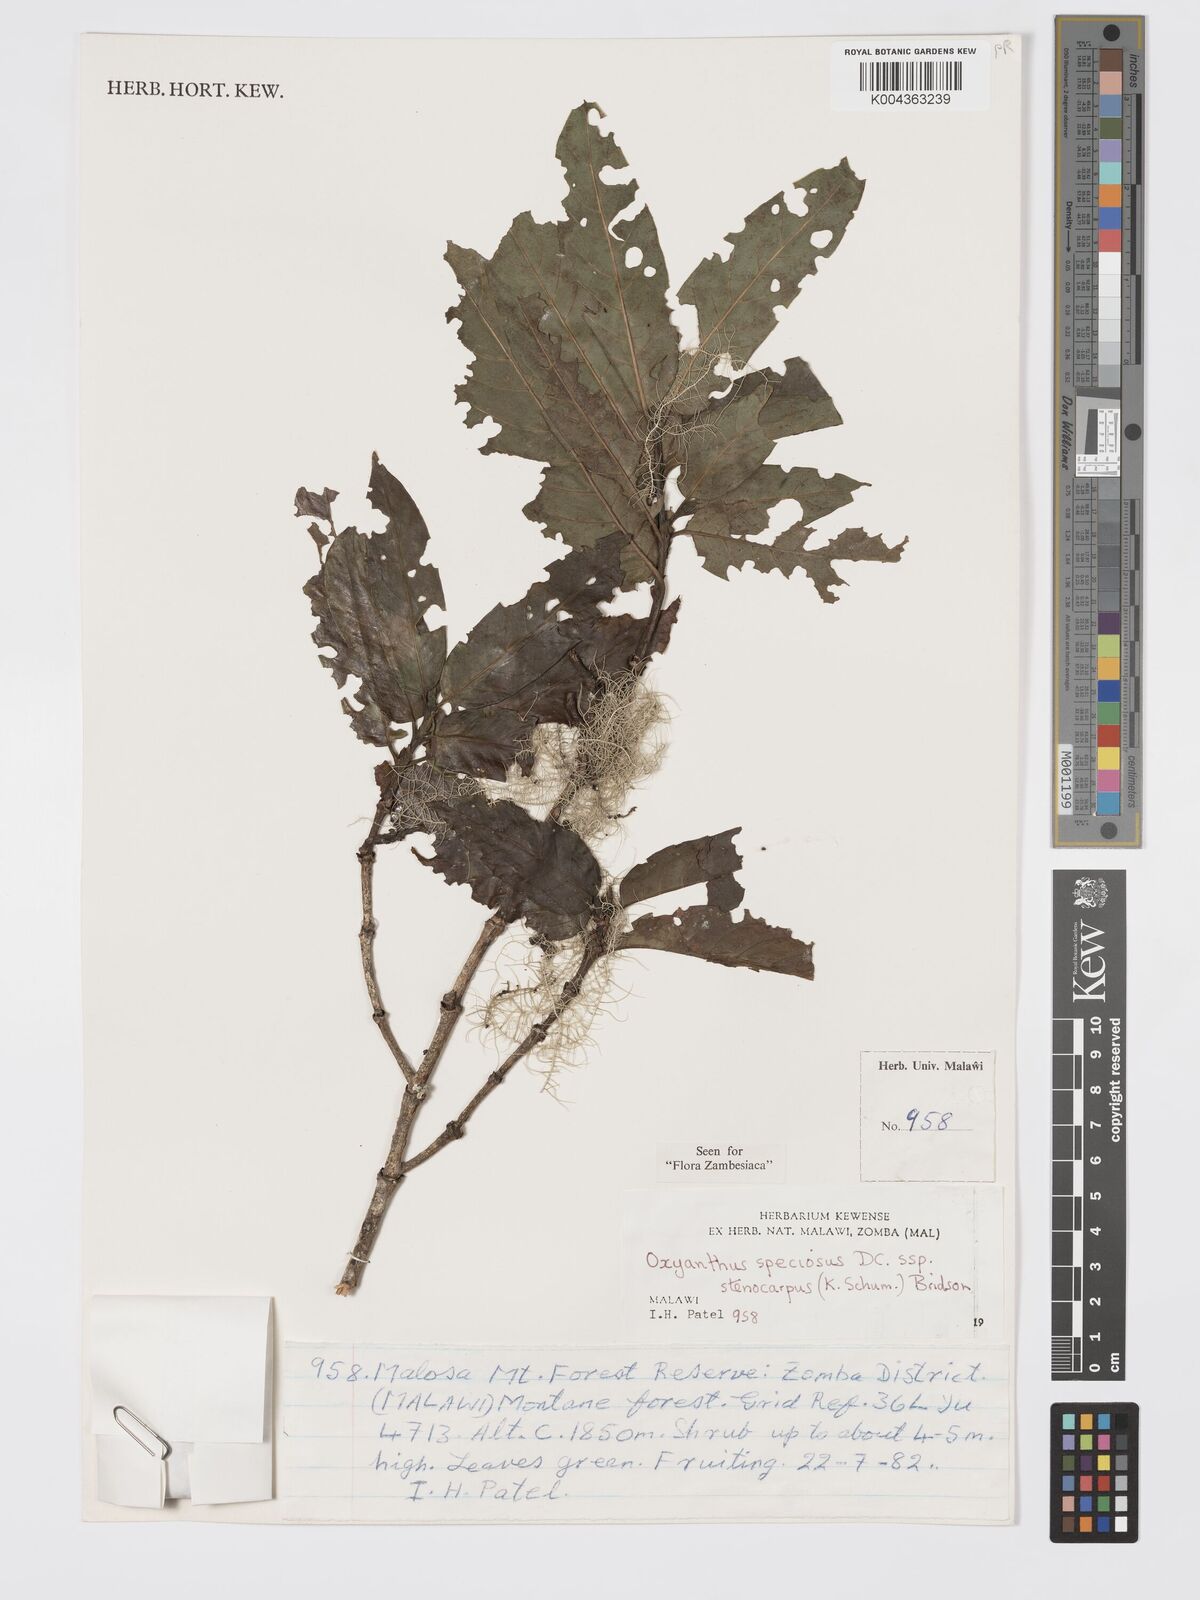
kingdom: Plantae
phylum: Tracheophyta
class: Magnoliopsida
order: Gentianales
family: Rubiaceae
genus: Oxyanthus
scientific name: Oxyanthus speciosus
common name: Whipstick loquat
